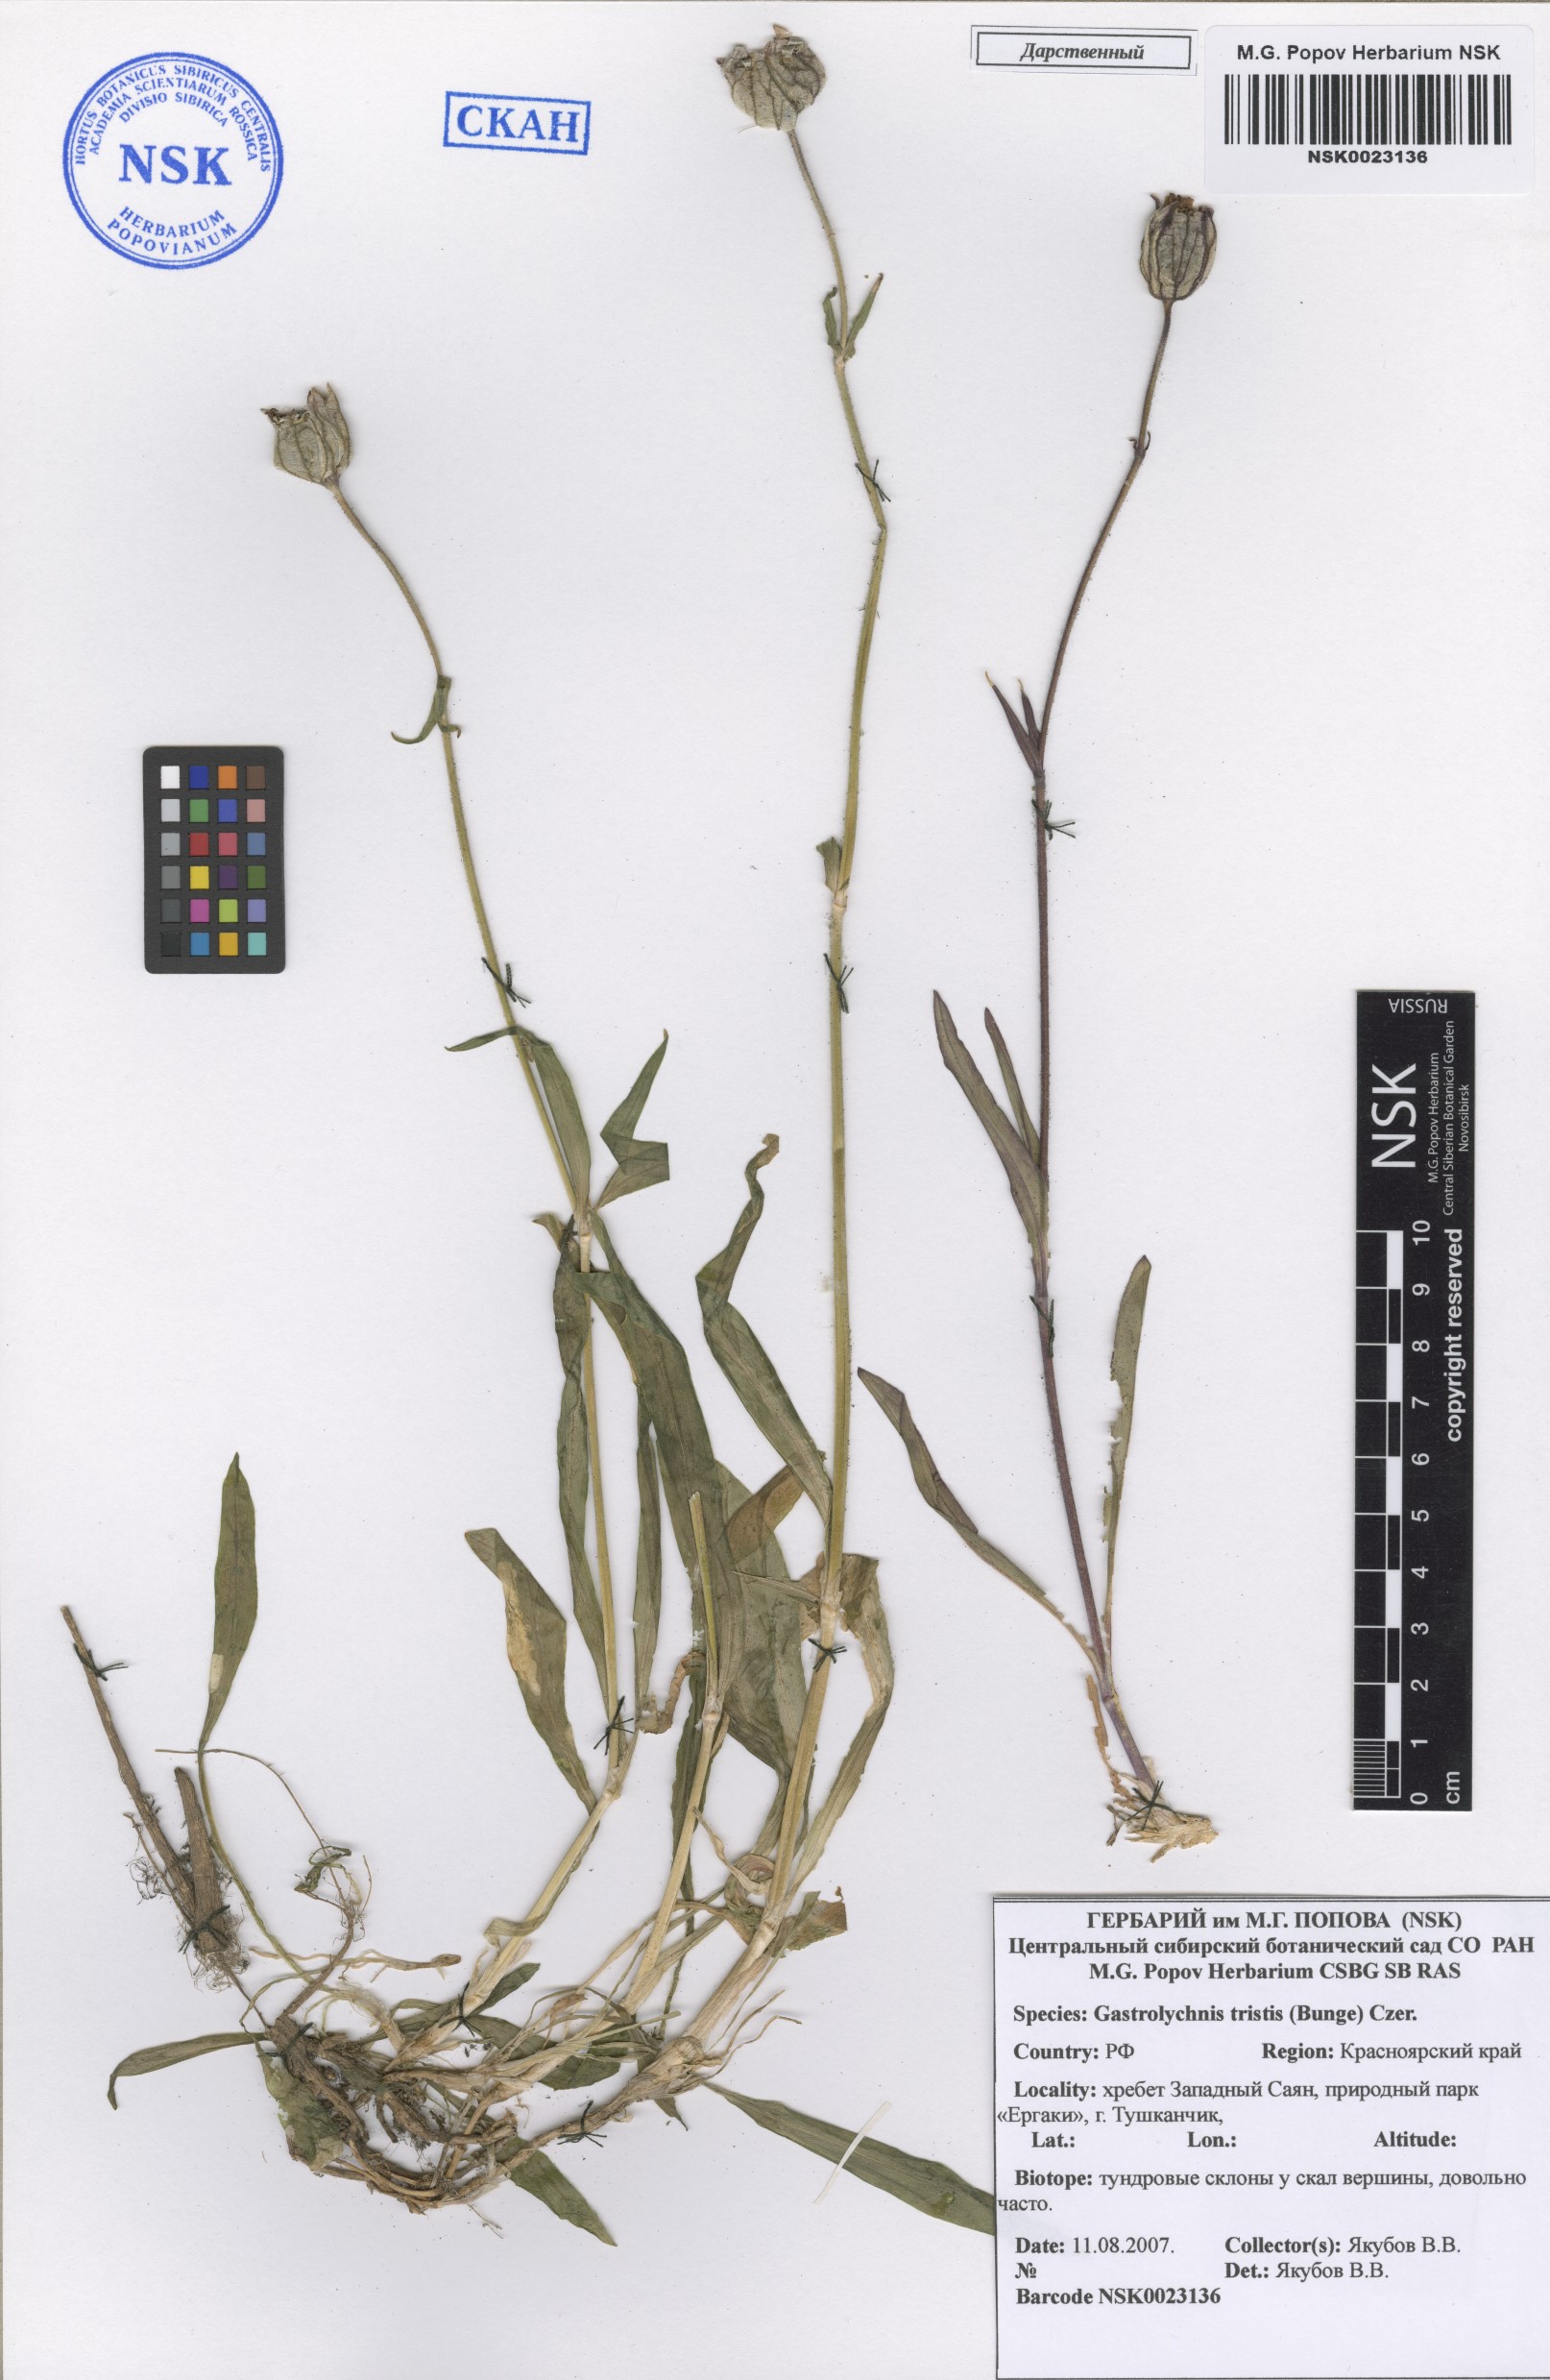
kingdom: Plantae
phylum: Tracheophyta
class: Magnoliopsida
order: Caryophyllales
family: Caryophyllaceae
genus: Silene
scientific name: Silene bungei
